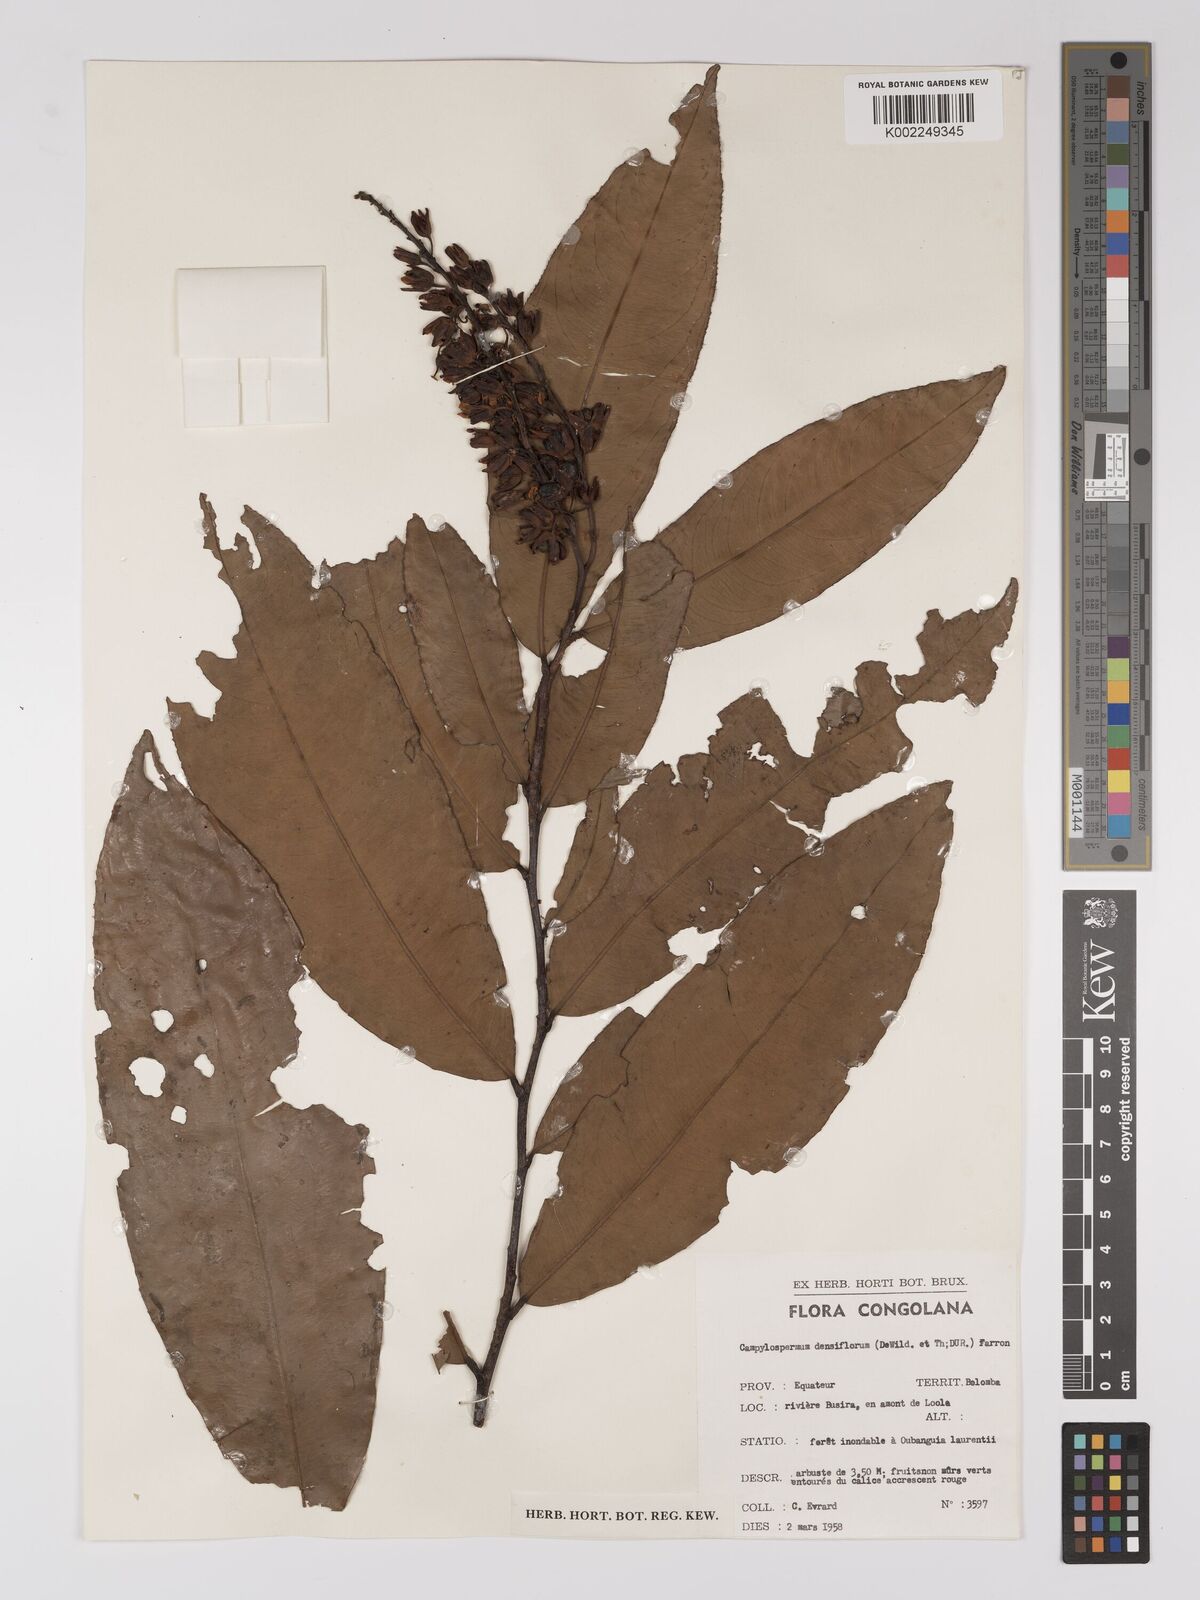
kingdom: Plantae
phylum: Tracheophyta
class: Magnoliopsida
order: Malpighiales
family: Ochnaceae
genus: Gomphia
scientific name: Gomphia densiflora
